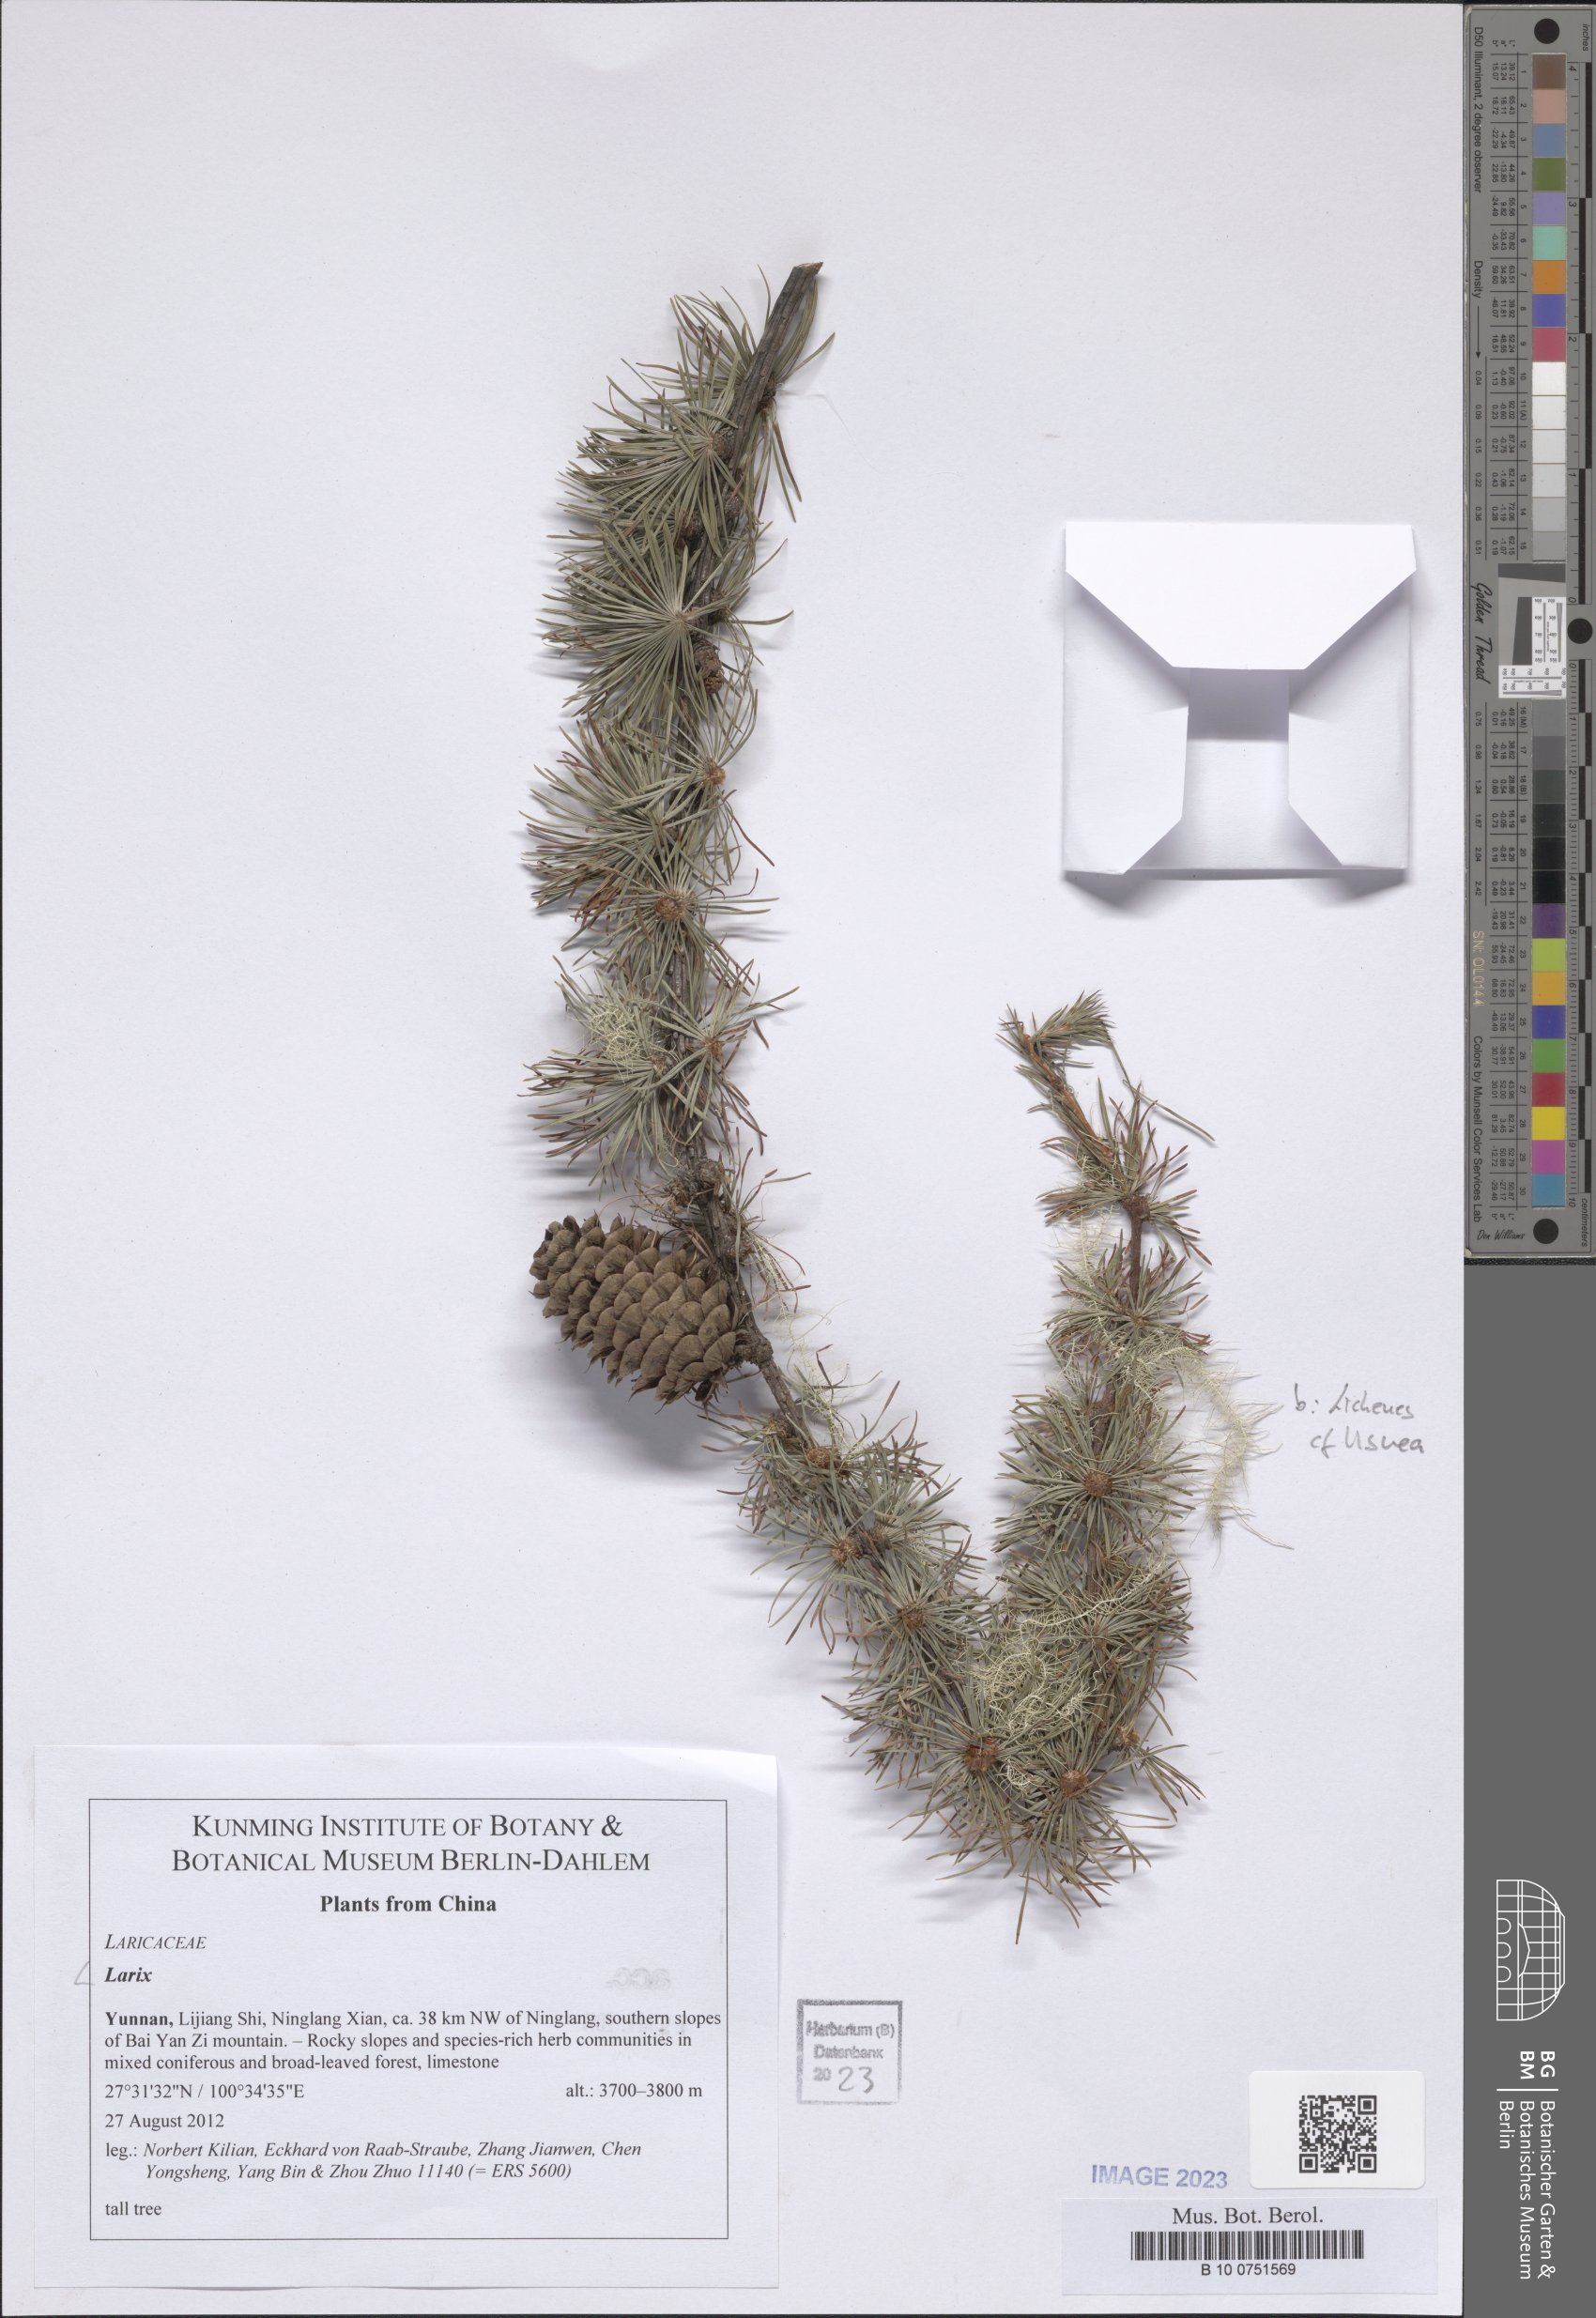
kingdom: Plantae
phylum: Tracheophyta
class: Pinopsida
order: Pinales
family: Pinaceae
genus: Larix
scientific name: Larix
